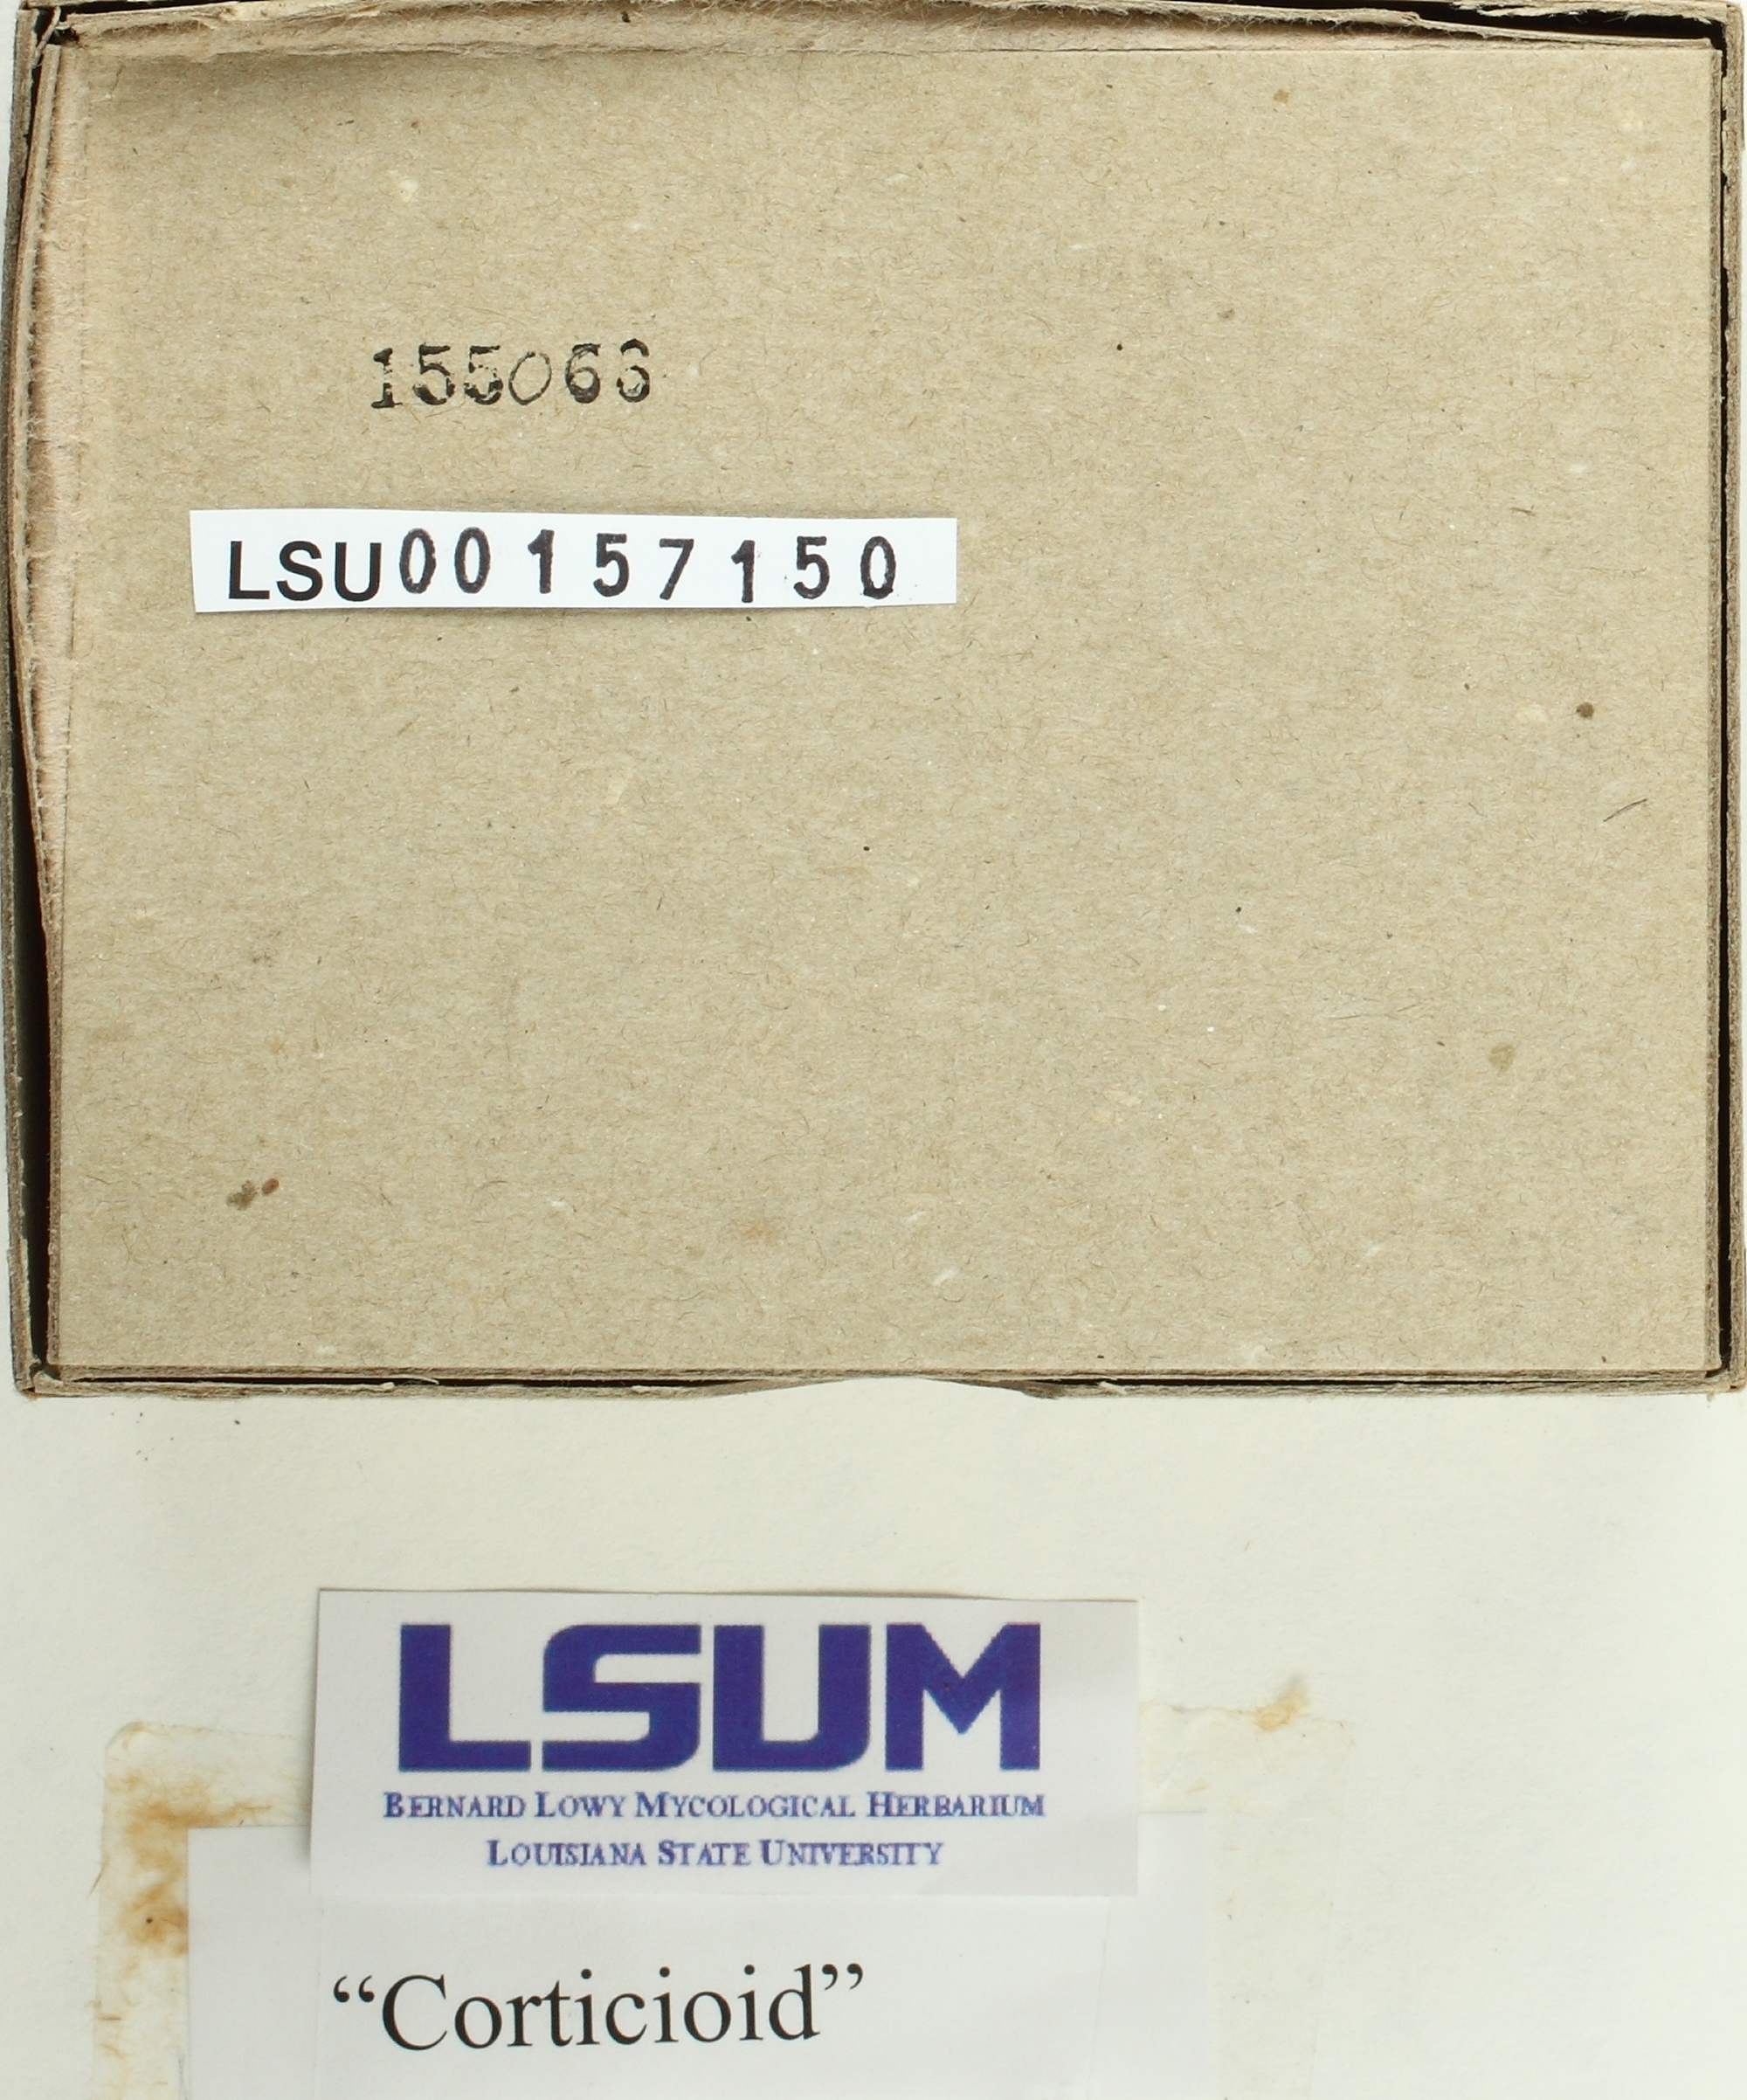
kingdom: Fungi
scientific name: Fungi
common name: Fungi
